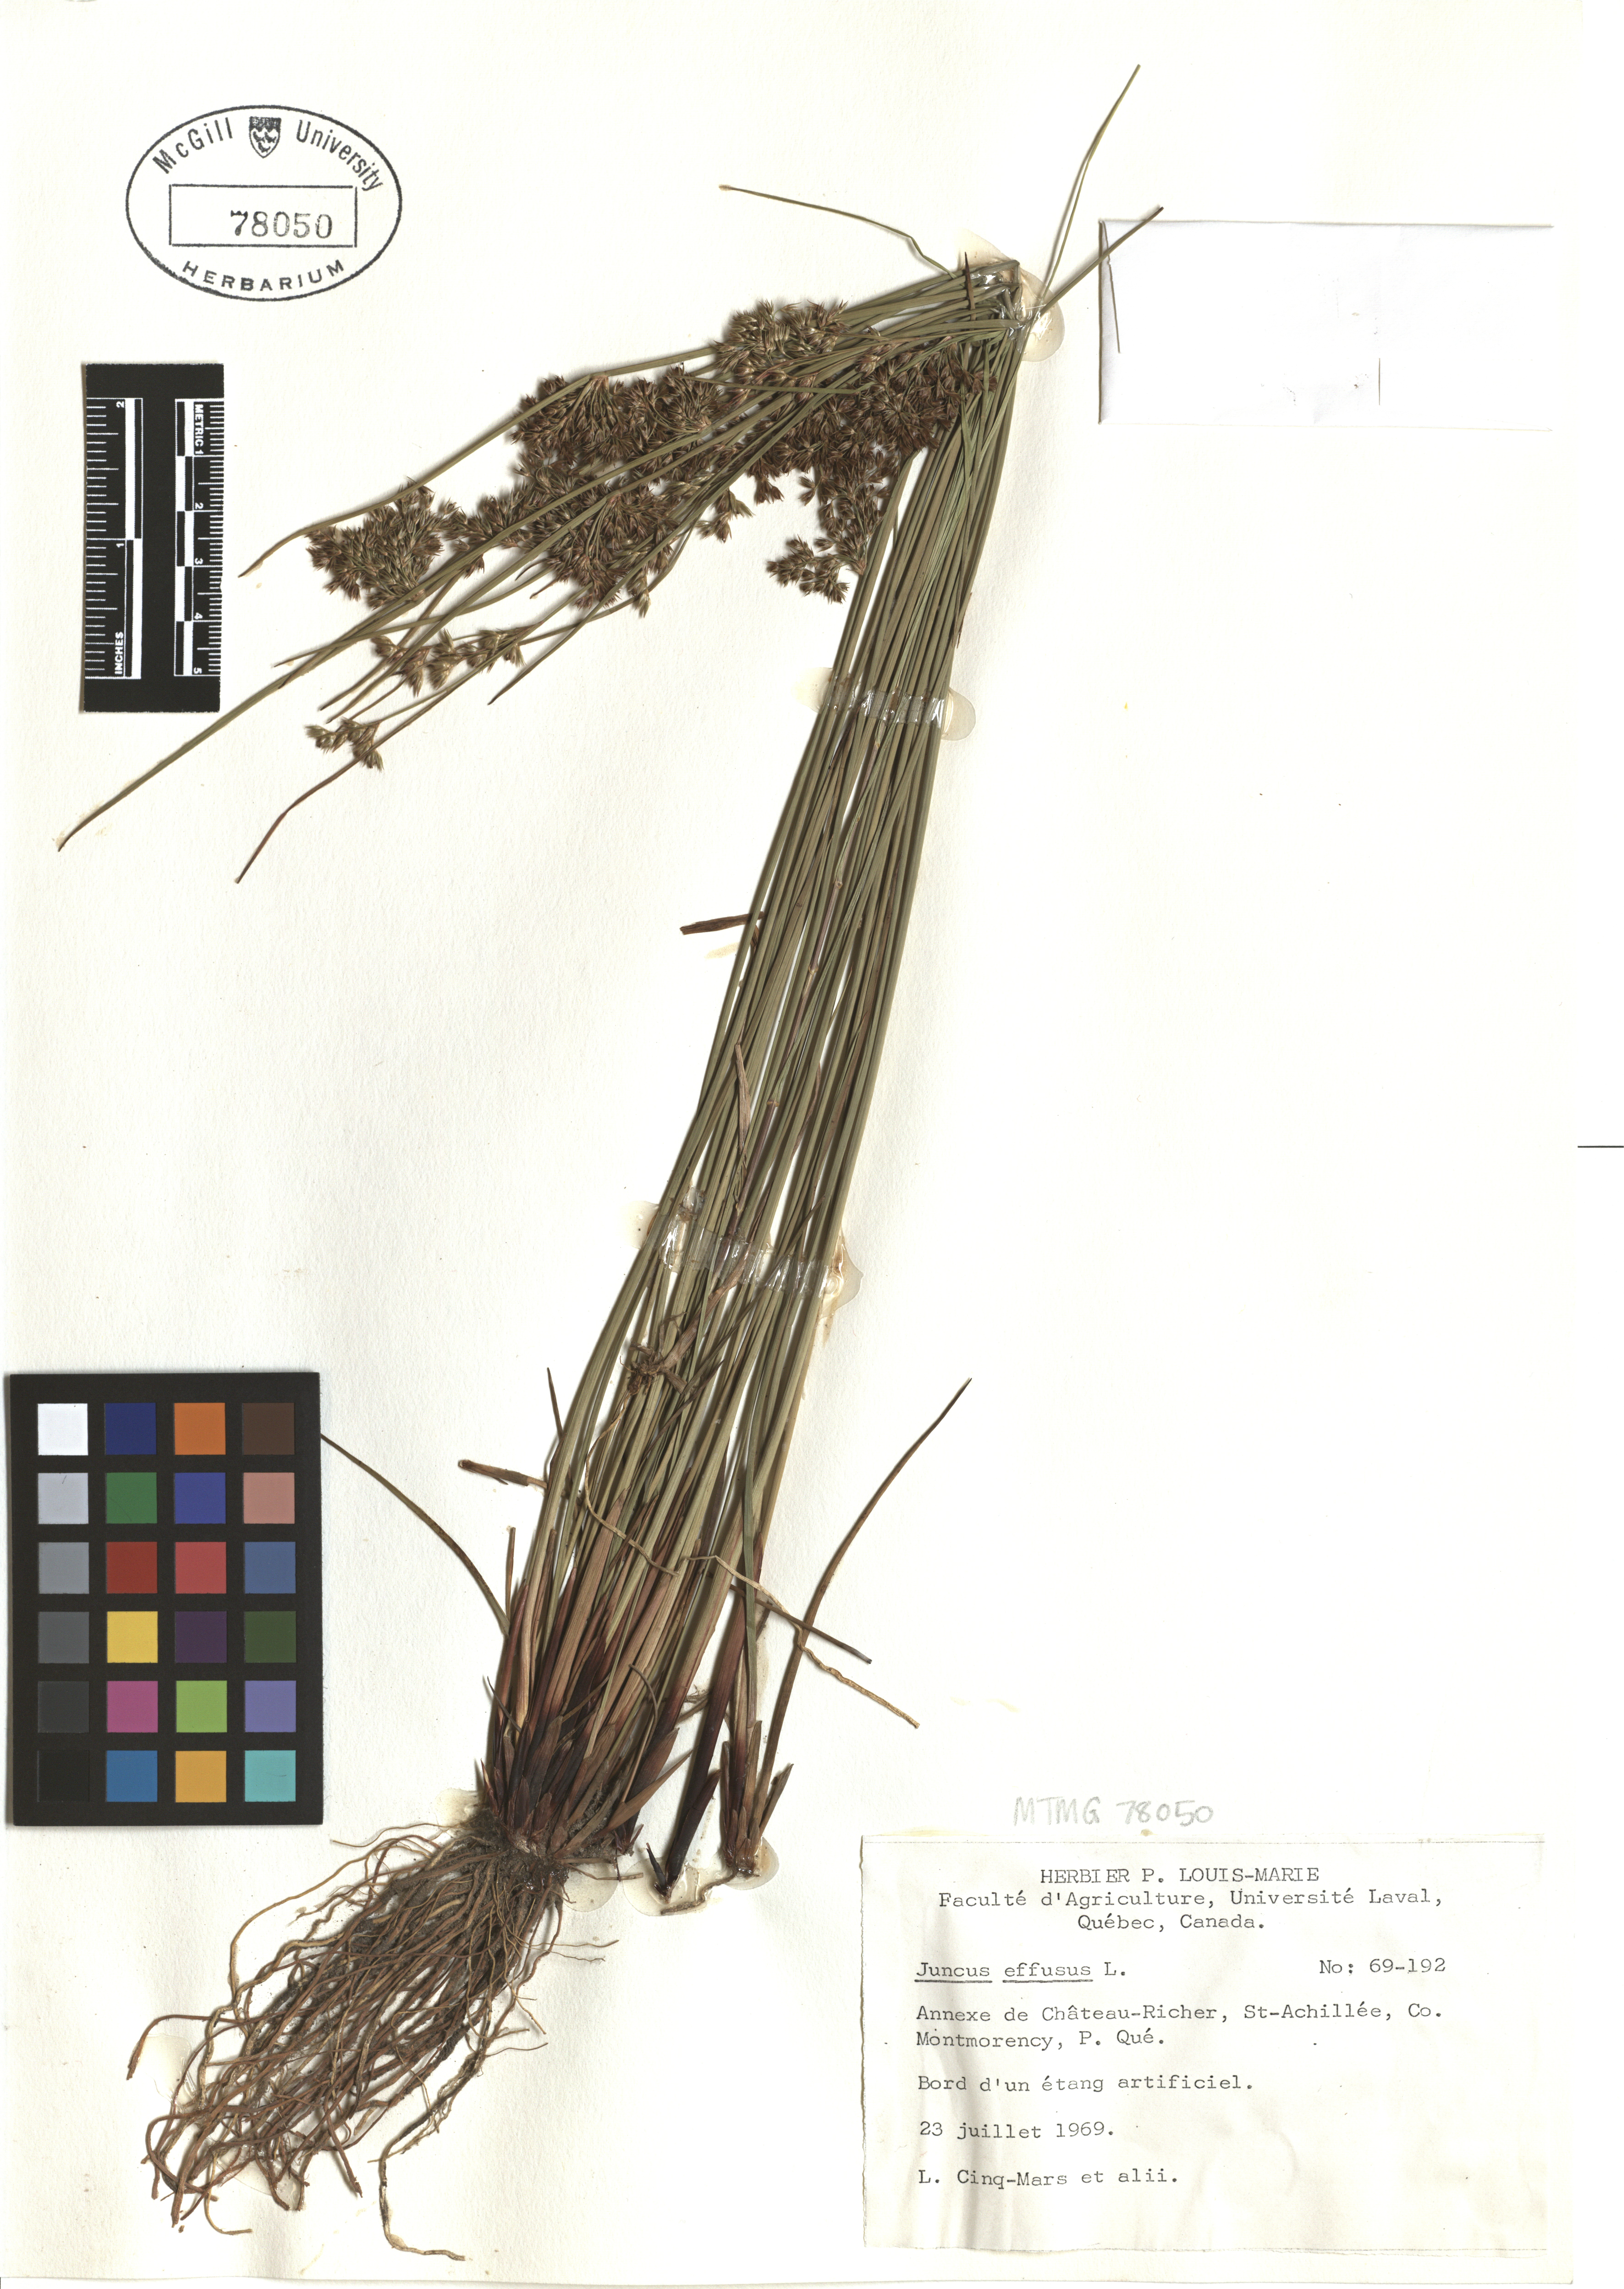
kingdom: Plantae
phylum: Tracheophyta
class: Liliopsida
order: Poales
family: Juncaceae
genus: Juncus
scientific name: Juncus effusus
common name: Soft rush
